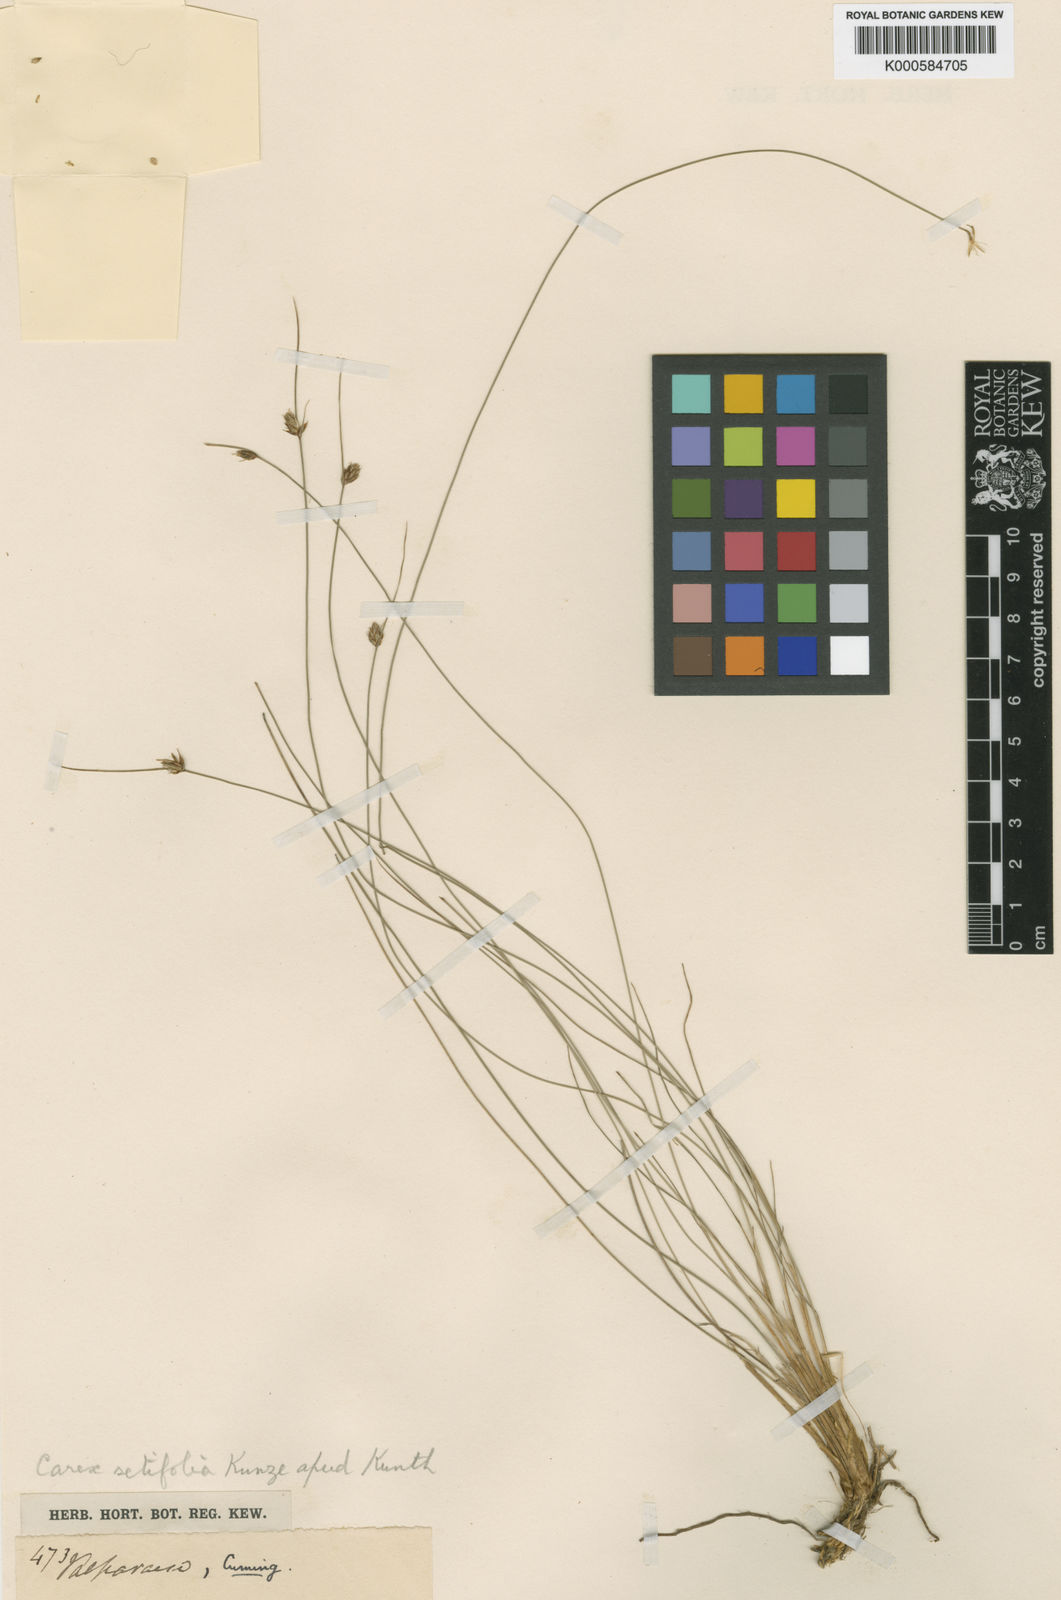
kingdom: Plantae
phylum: Tracheophyta
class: Liliopsida
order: Poales
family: Cyperaceae
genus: Carex
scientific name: Carex setifolia
